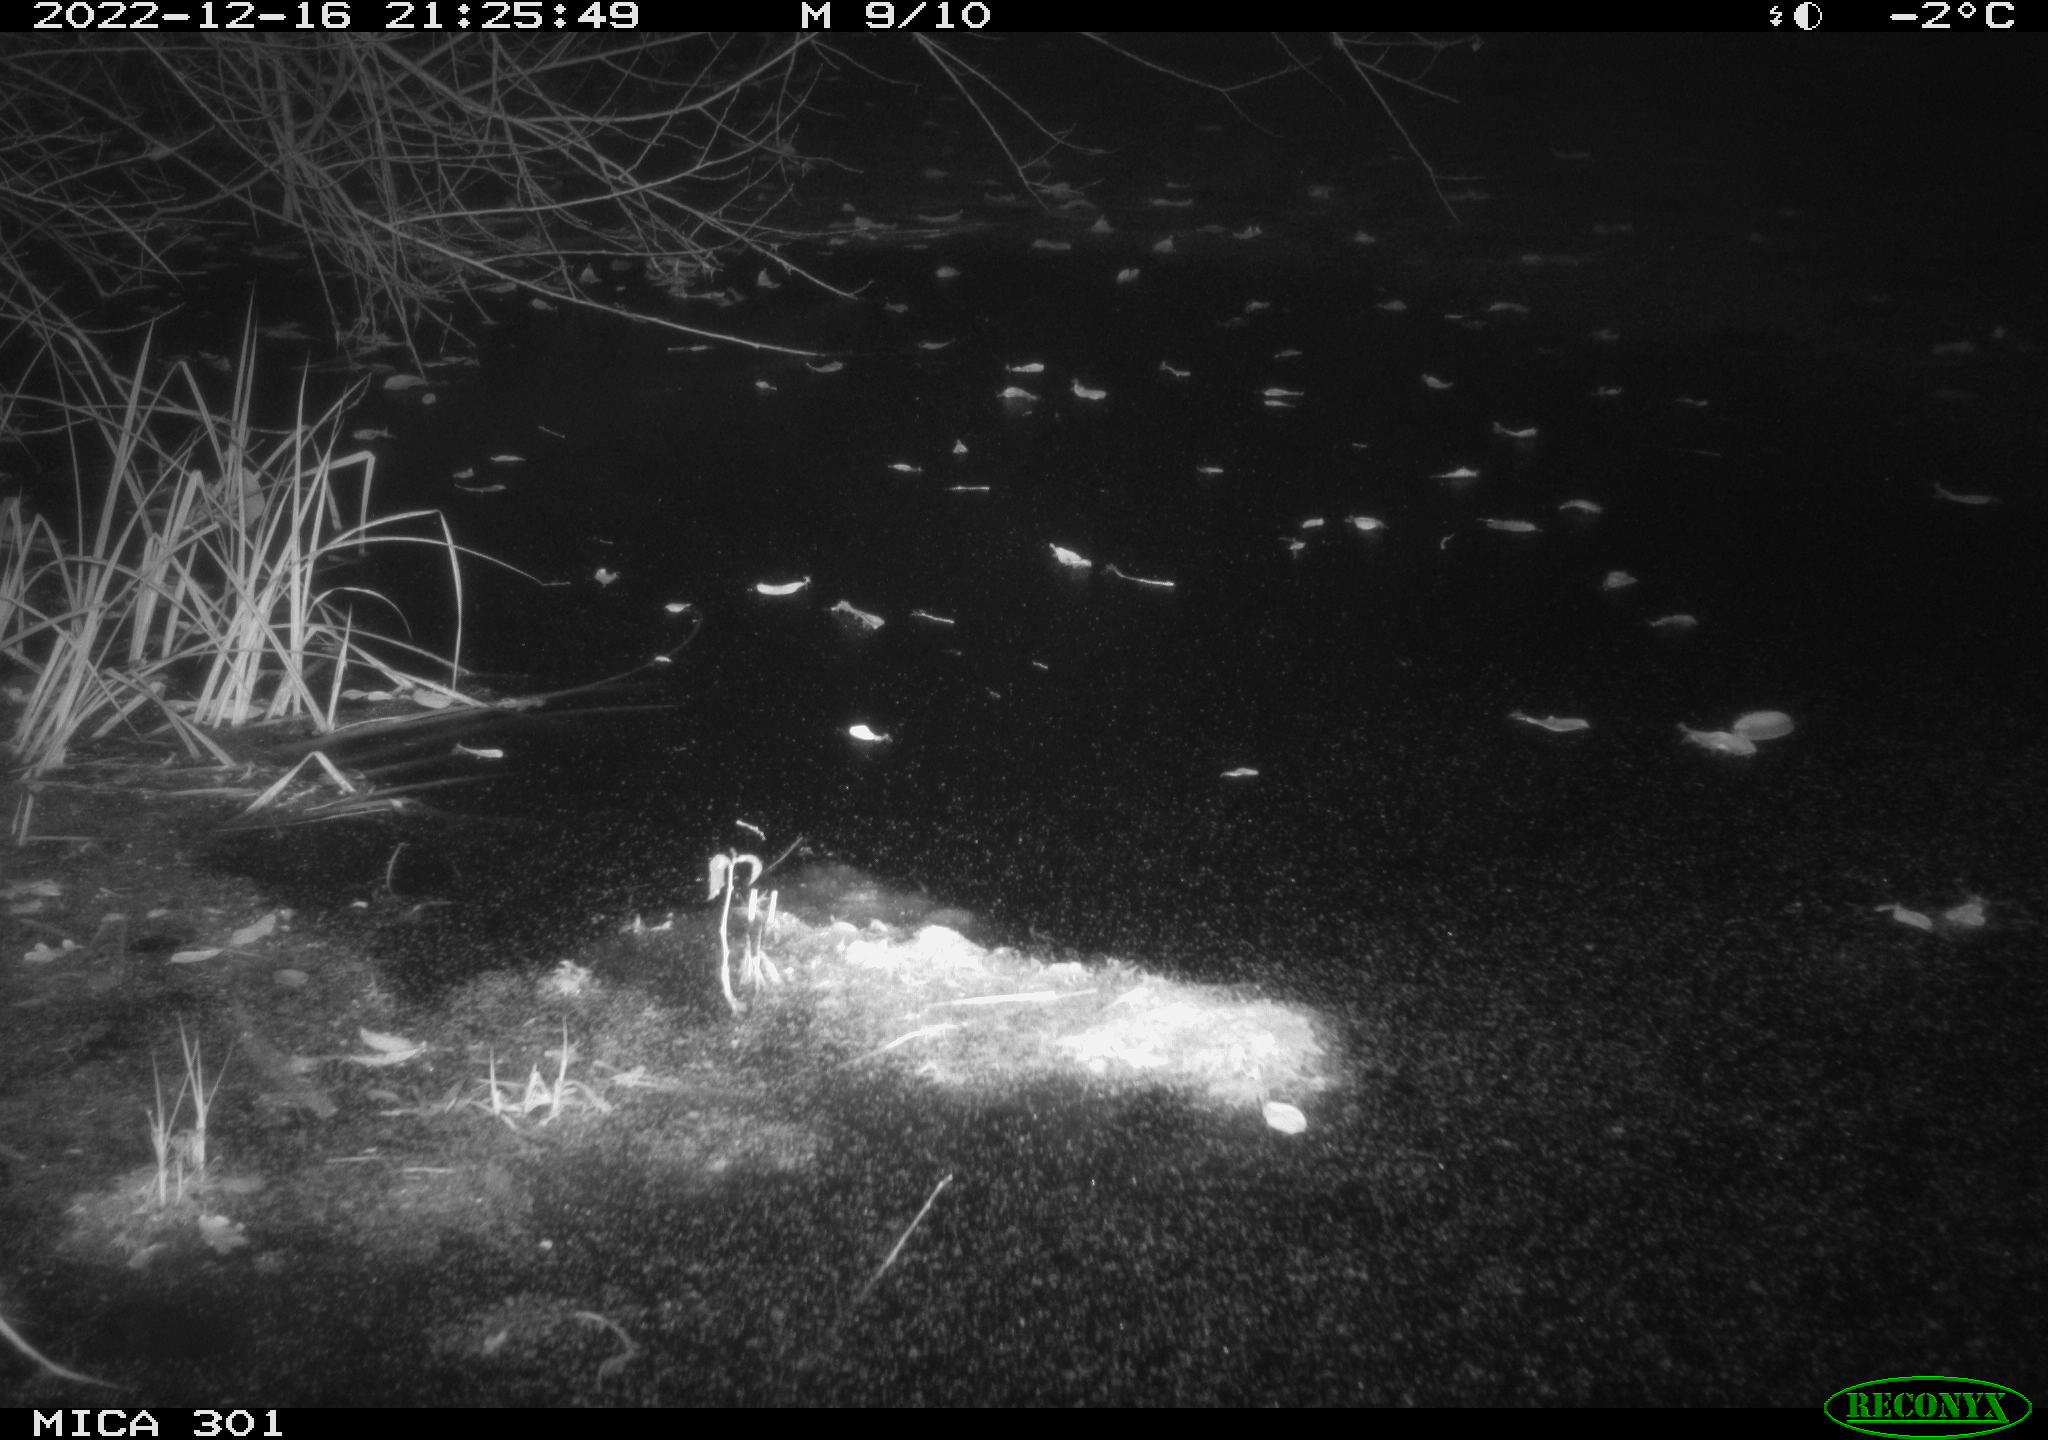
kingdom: Animalia
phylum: Chordata
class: Mammalia
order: Carnivora
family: Canidae
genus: Vulpes
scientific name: Vulpes vulpes
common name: Red fox
